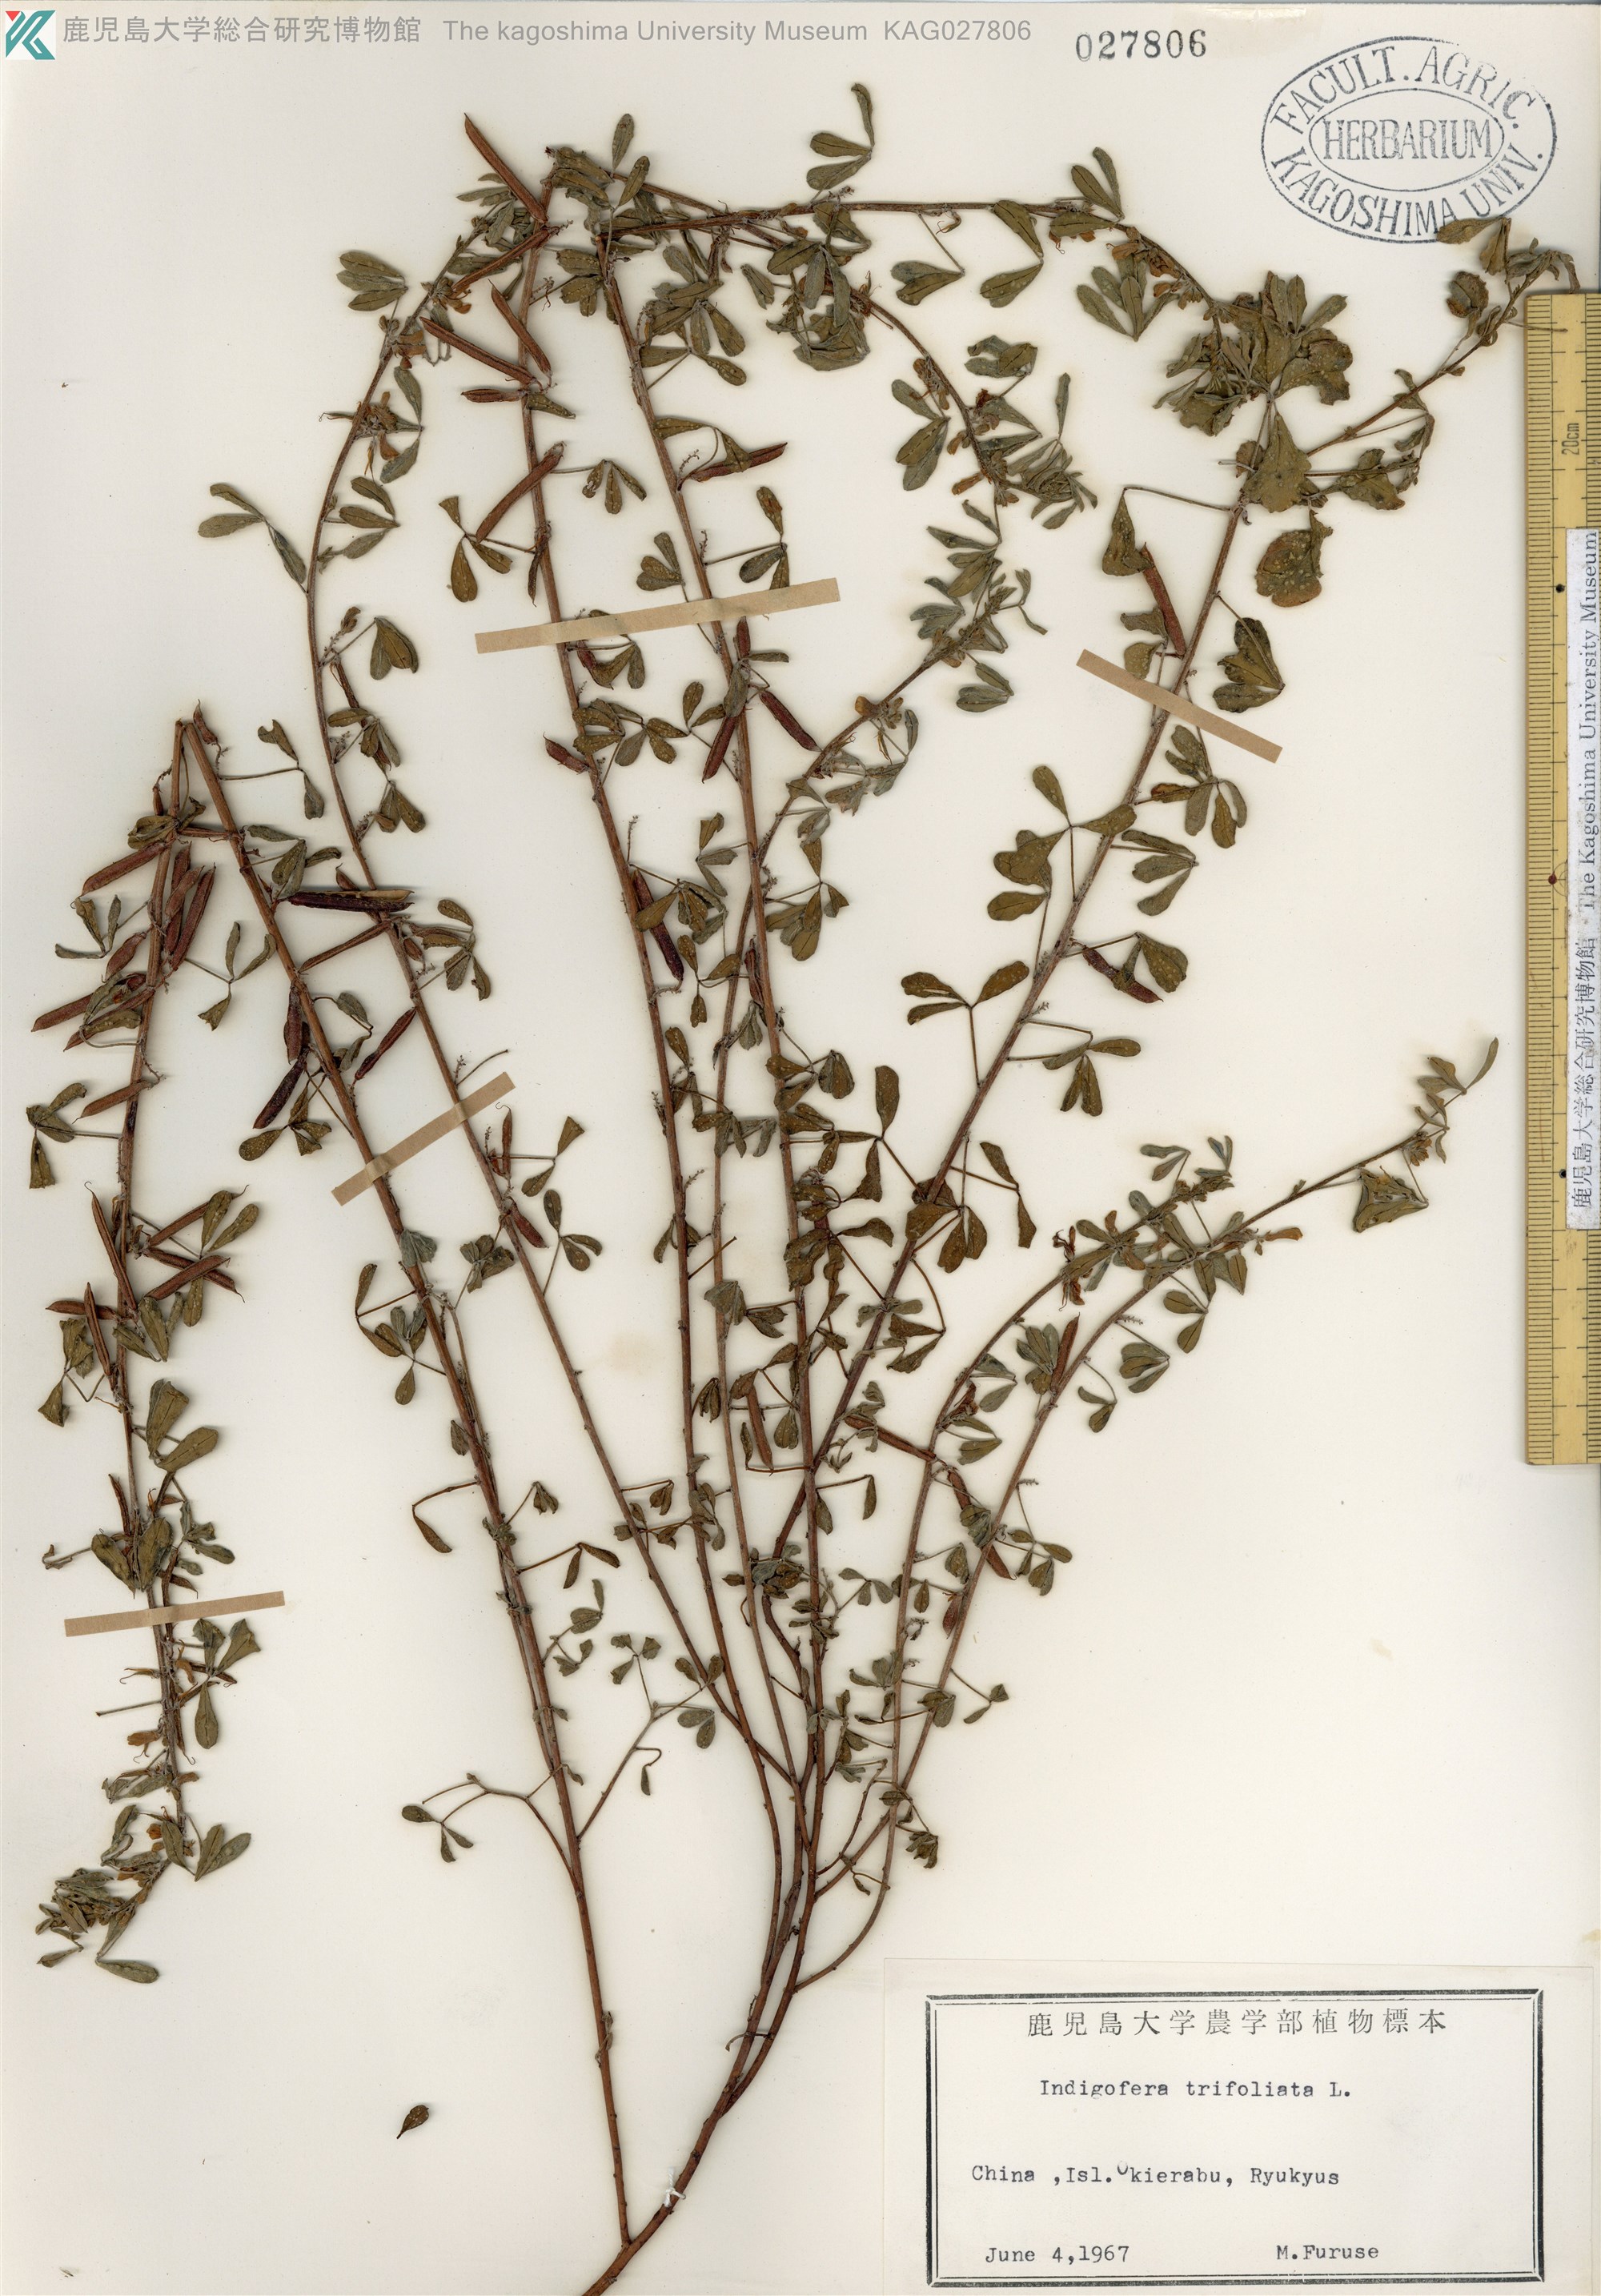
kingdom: Plantae
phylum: Tracheophyta
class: Magnoliopsida
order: Fabales
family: Fabaceae
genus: Indigofera
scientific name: Indigofera trifoliata
